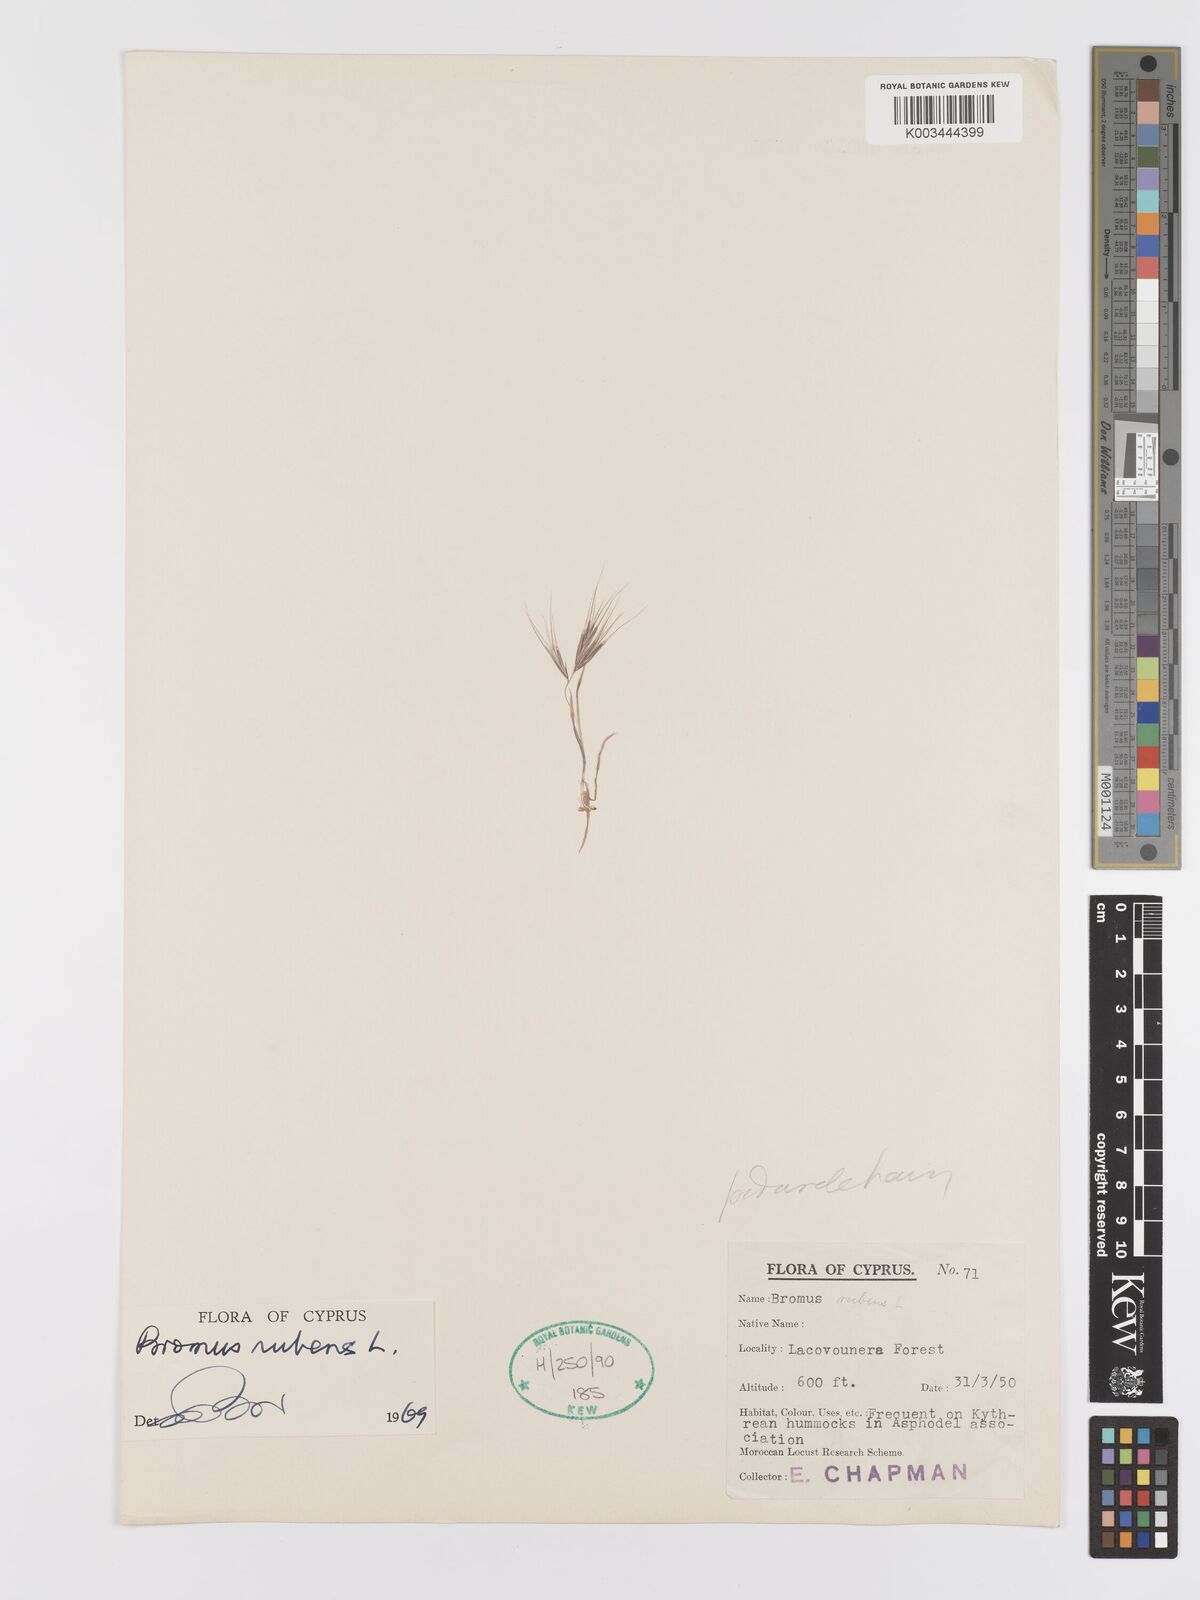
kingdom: Plantae
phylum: Tracheophyta
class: Liliopsida
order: Poales
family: Poaceae
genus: Bromus
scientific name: Bromus rubens
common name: Red brome
